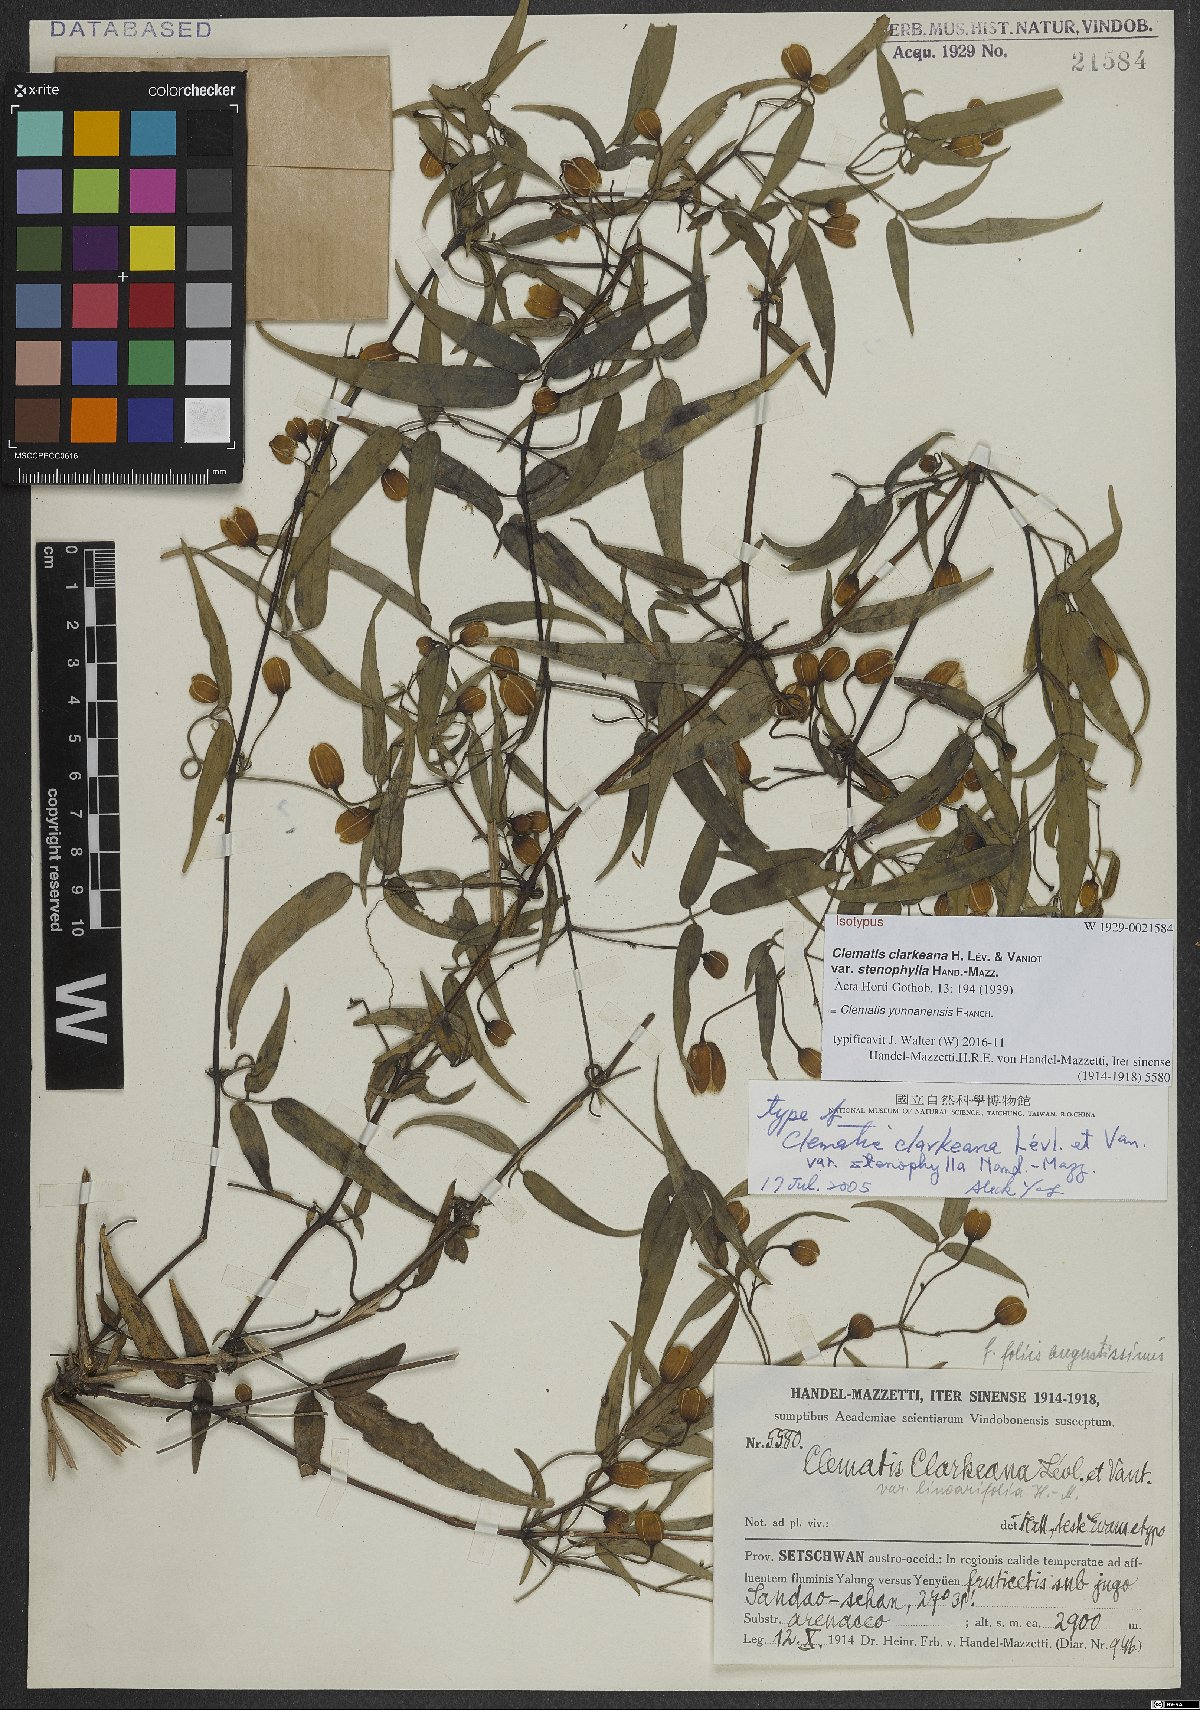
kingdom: Plantae
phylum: Tracheophyta
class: Magnoliopsida
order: Ranunculales
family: Ranunculaceae
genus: Clematis
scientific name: Clematis yunnanensis
